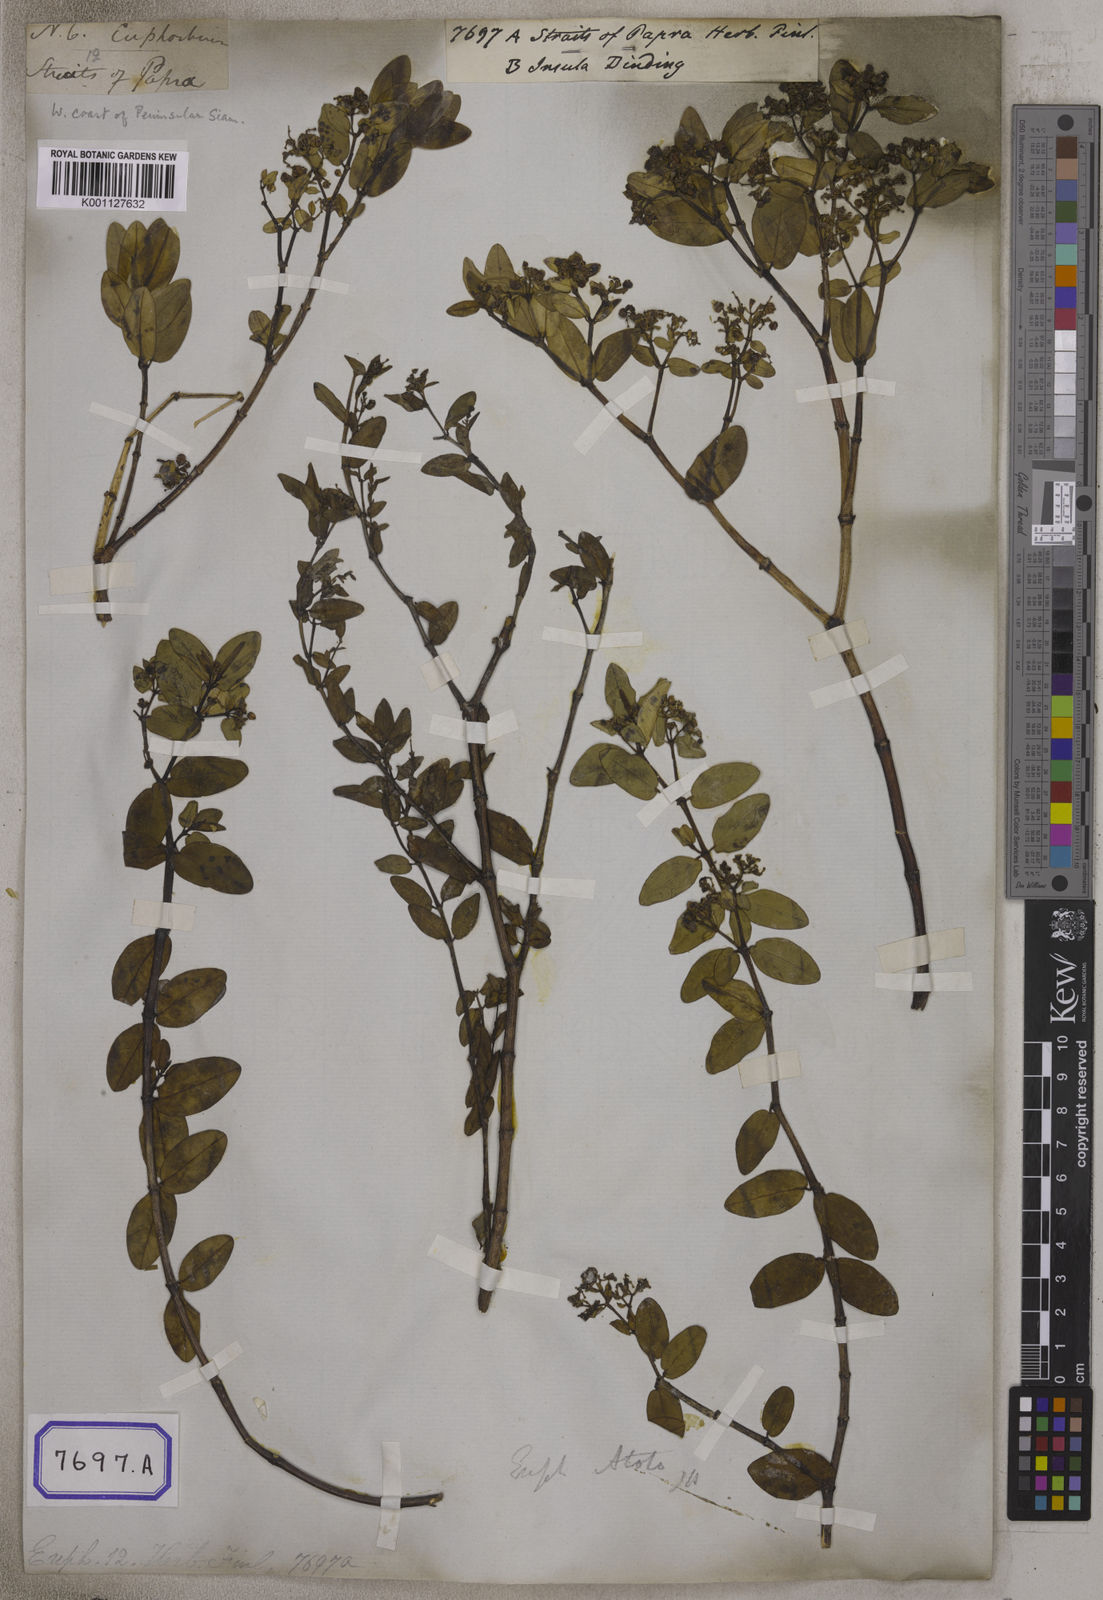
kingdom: Plantae
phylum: Tracheophyta
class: Magnoliopsida
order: Malpighiales
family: Euphorbiaceae
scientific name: Euphorbiaceae
